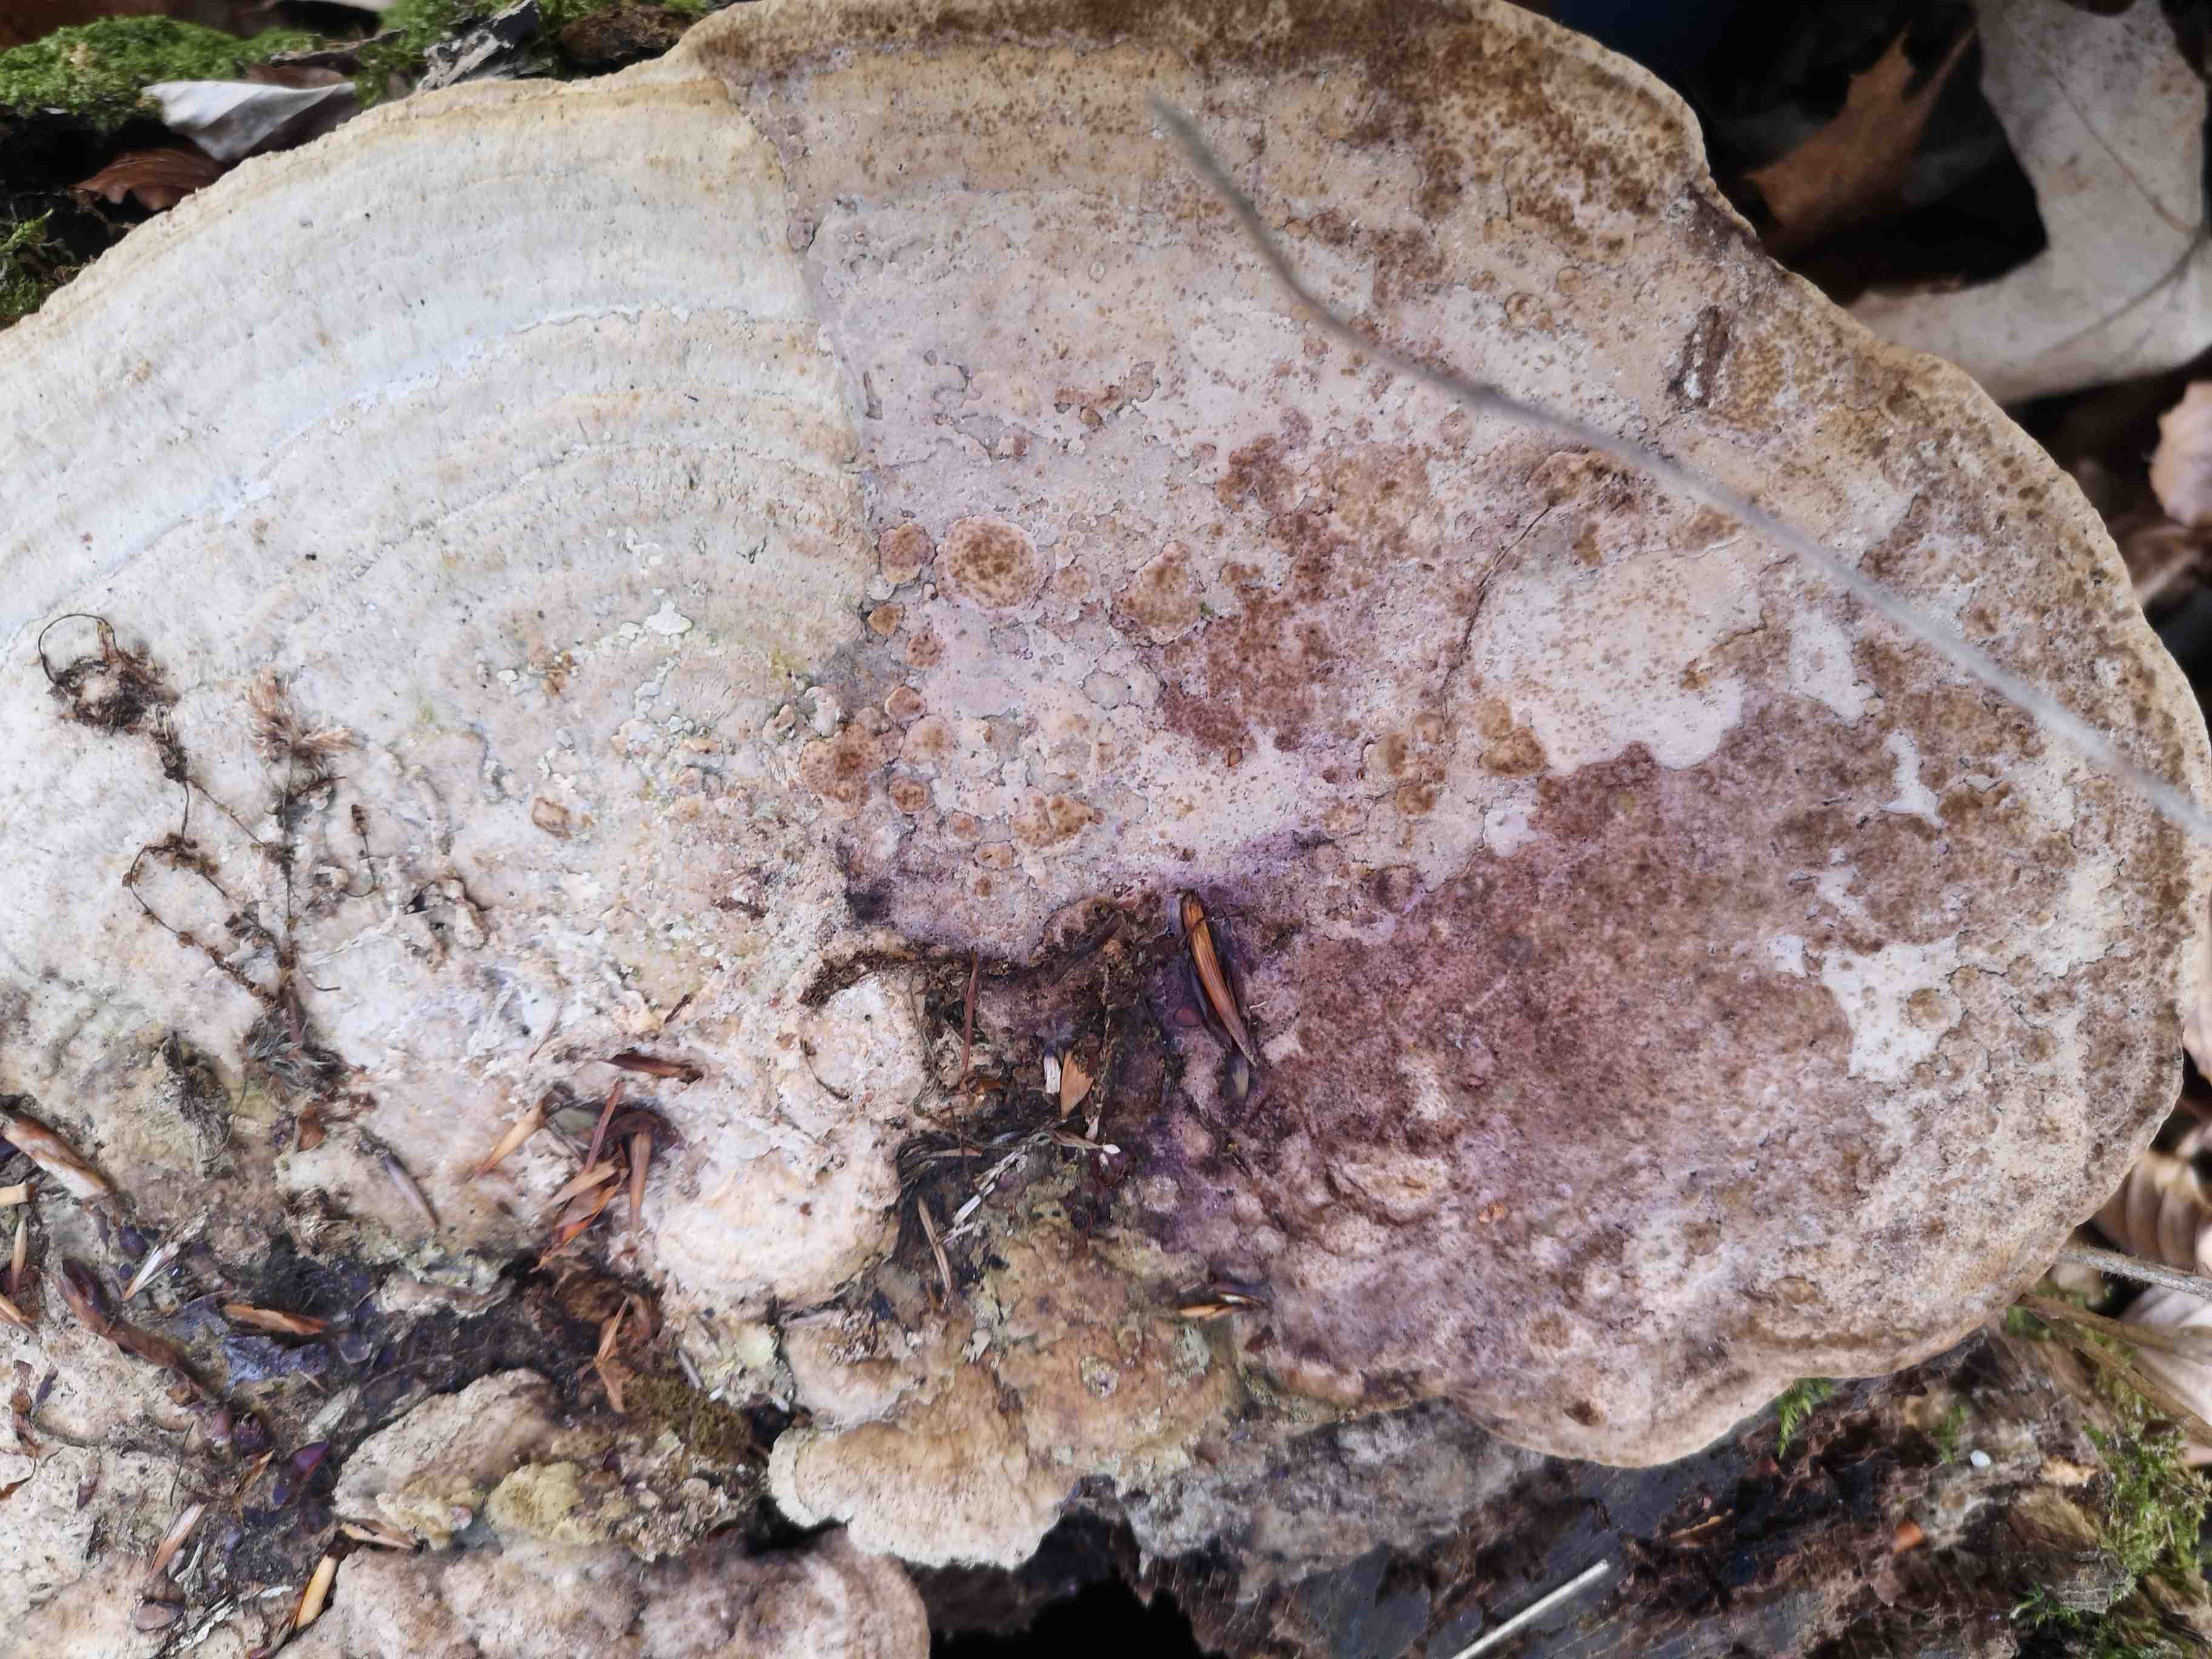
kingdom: Fungi
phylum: Basidiomycota
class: Agaricomycetes
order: Polyporales
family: Fomitopsidaceae
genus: Daedalea
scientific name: Daedalea quercina
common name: ege-labyrintsvamp
